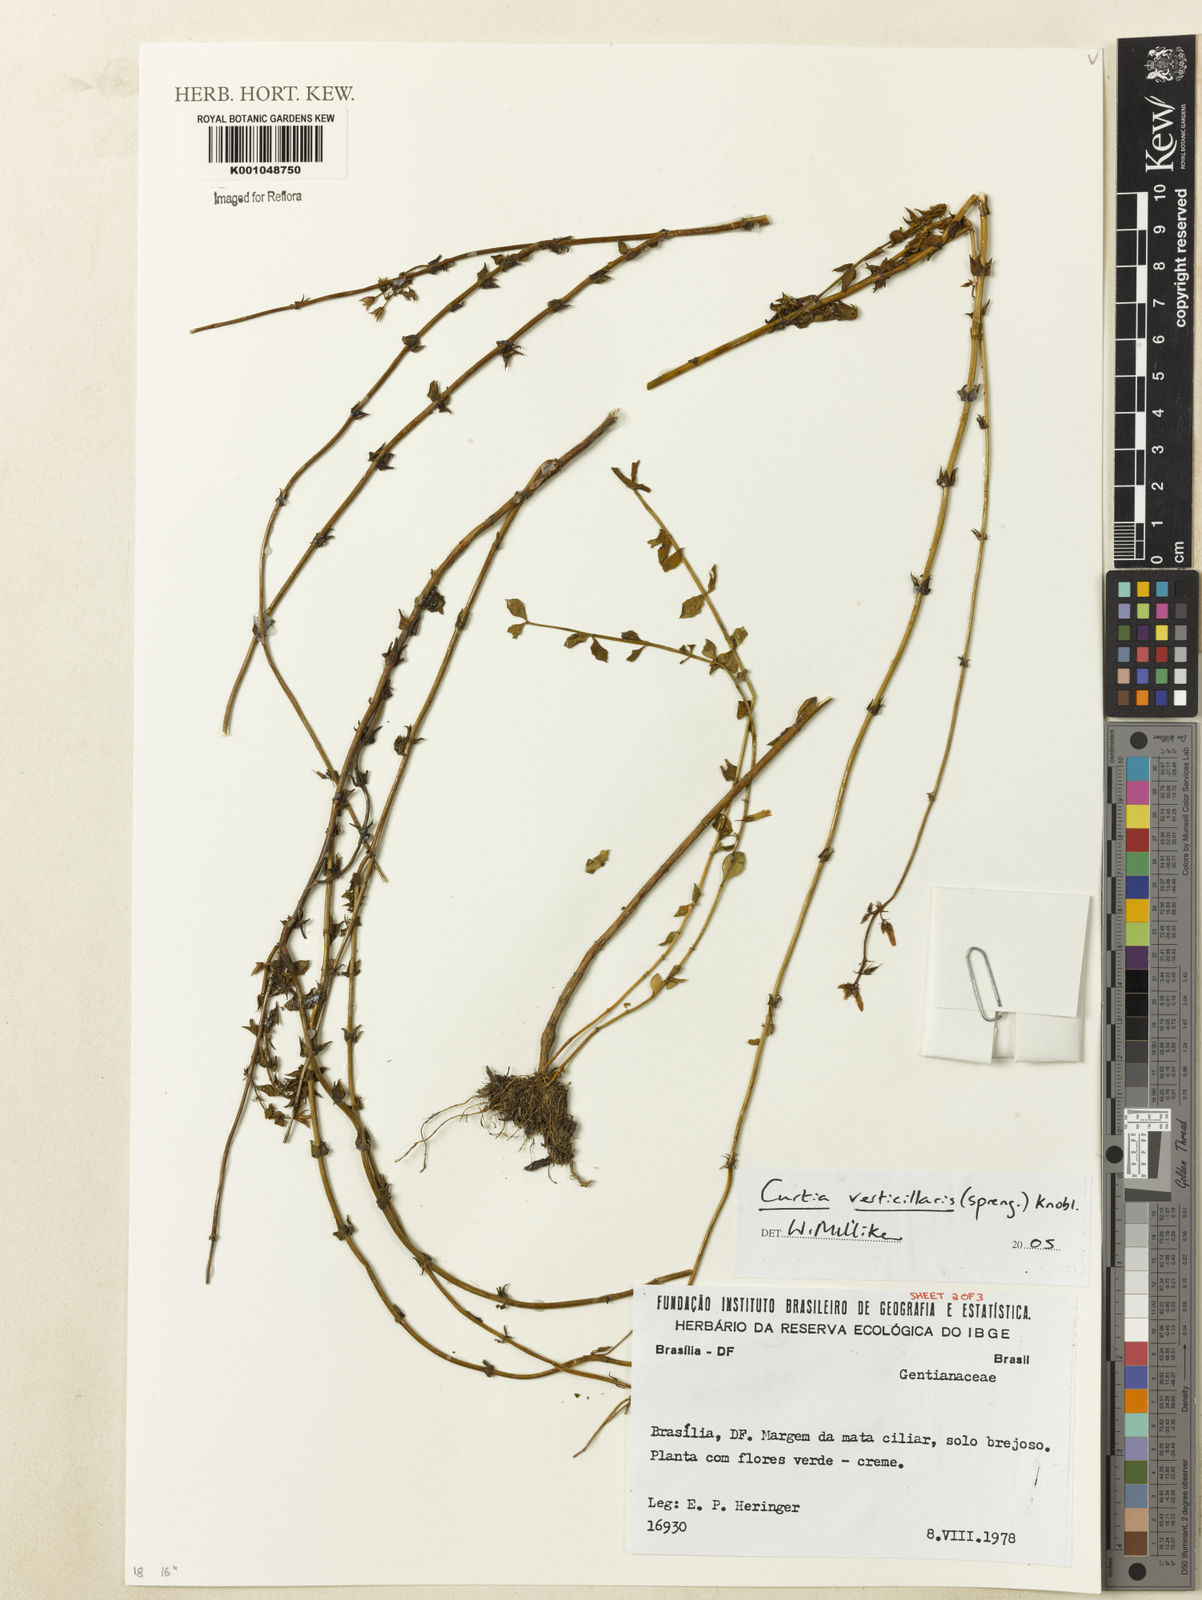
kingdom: Plantae
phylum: Tracheophyta
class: Magnoliopsida
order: Gentianales
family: Gentianaceae
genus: Curtia
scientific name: Curtia verticillaris
